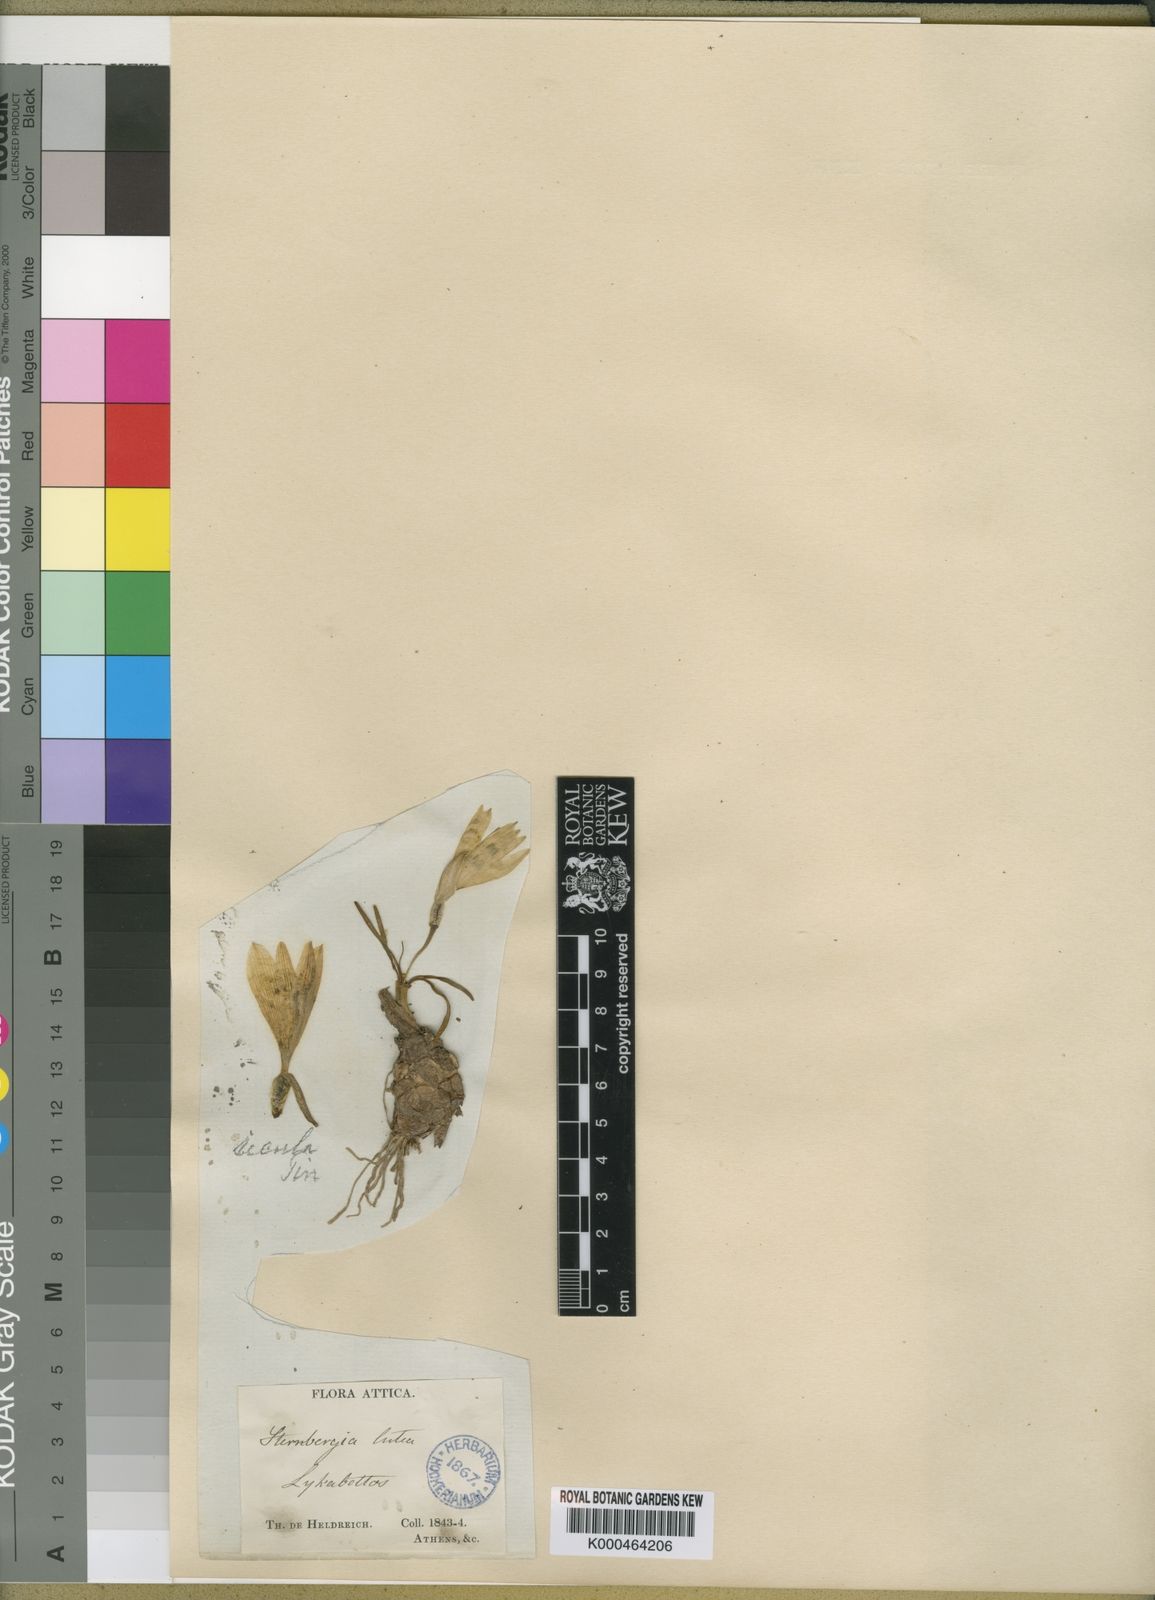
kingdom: Plantae
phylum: Tracheophyta
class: Liliopsida
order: Asparagales
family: Amaryllidaceae
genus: Sternbergia
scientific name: Sternbergia
